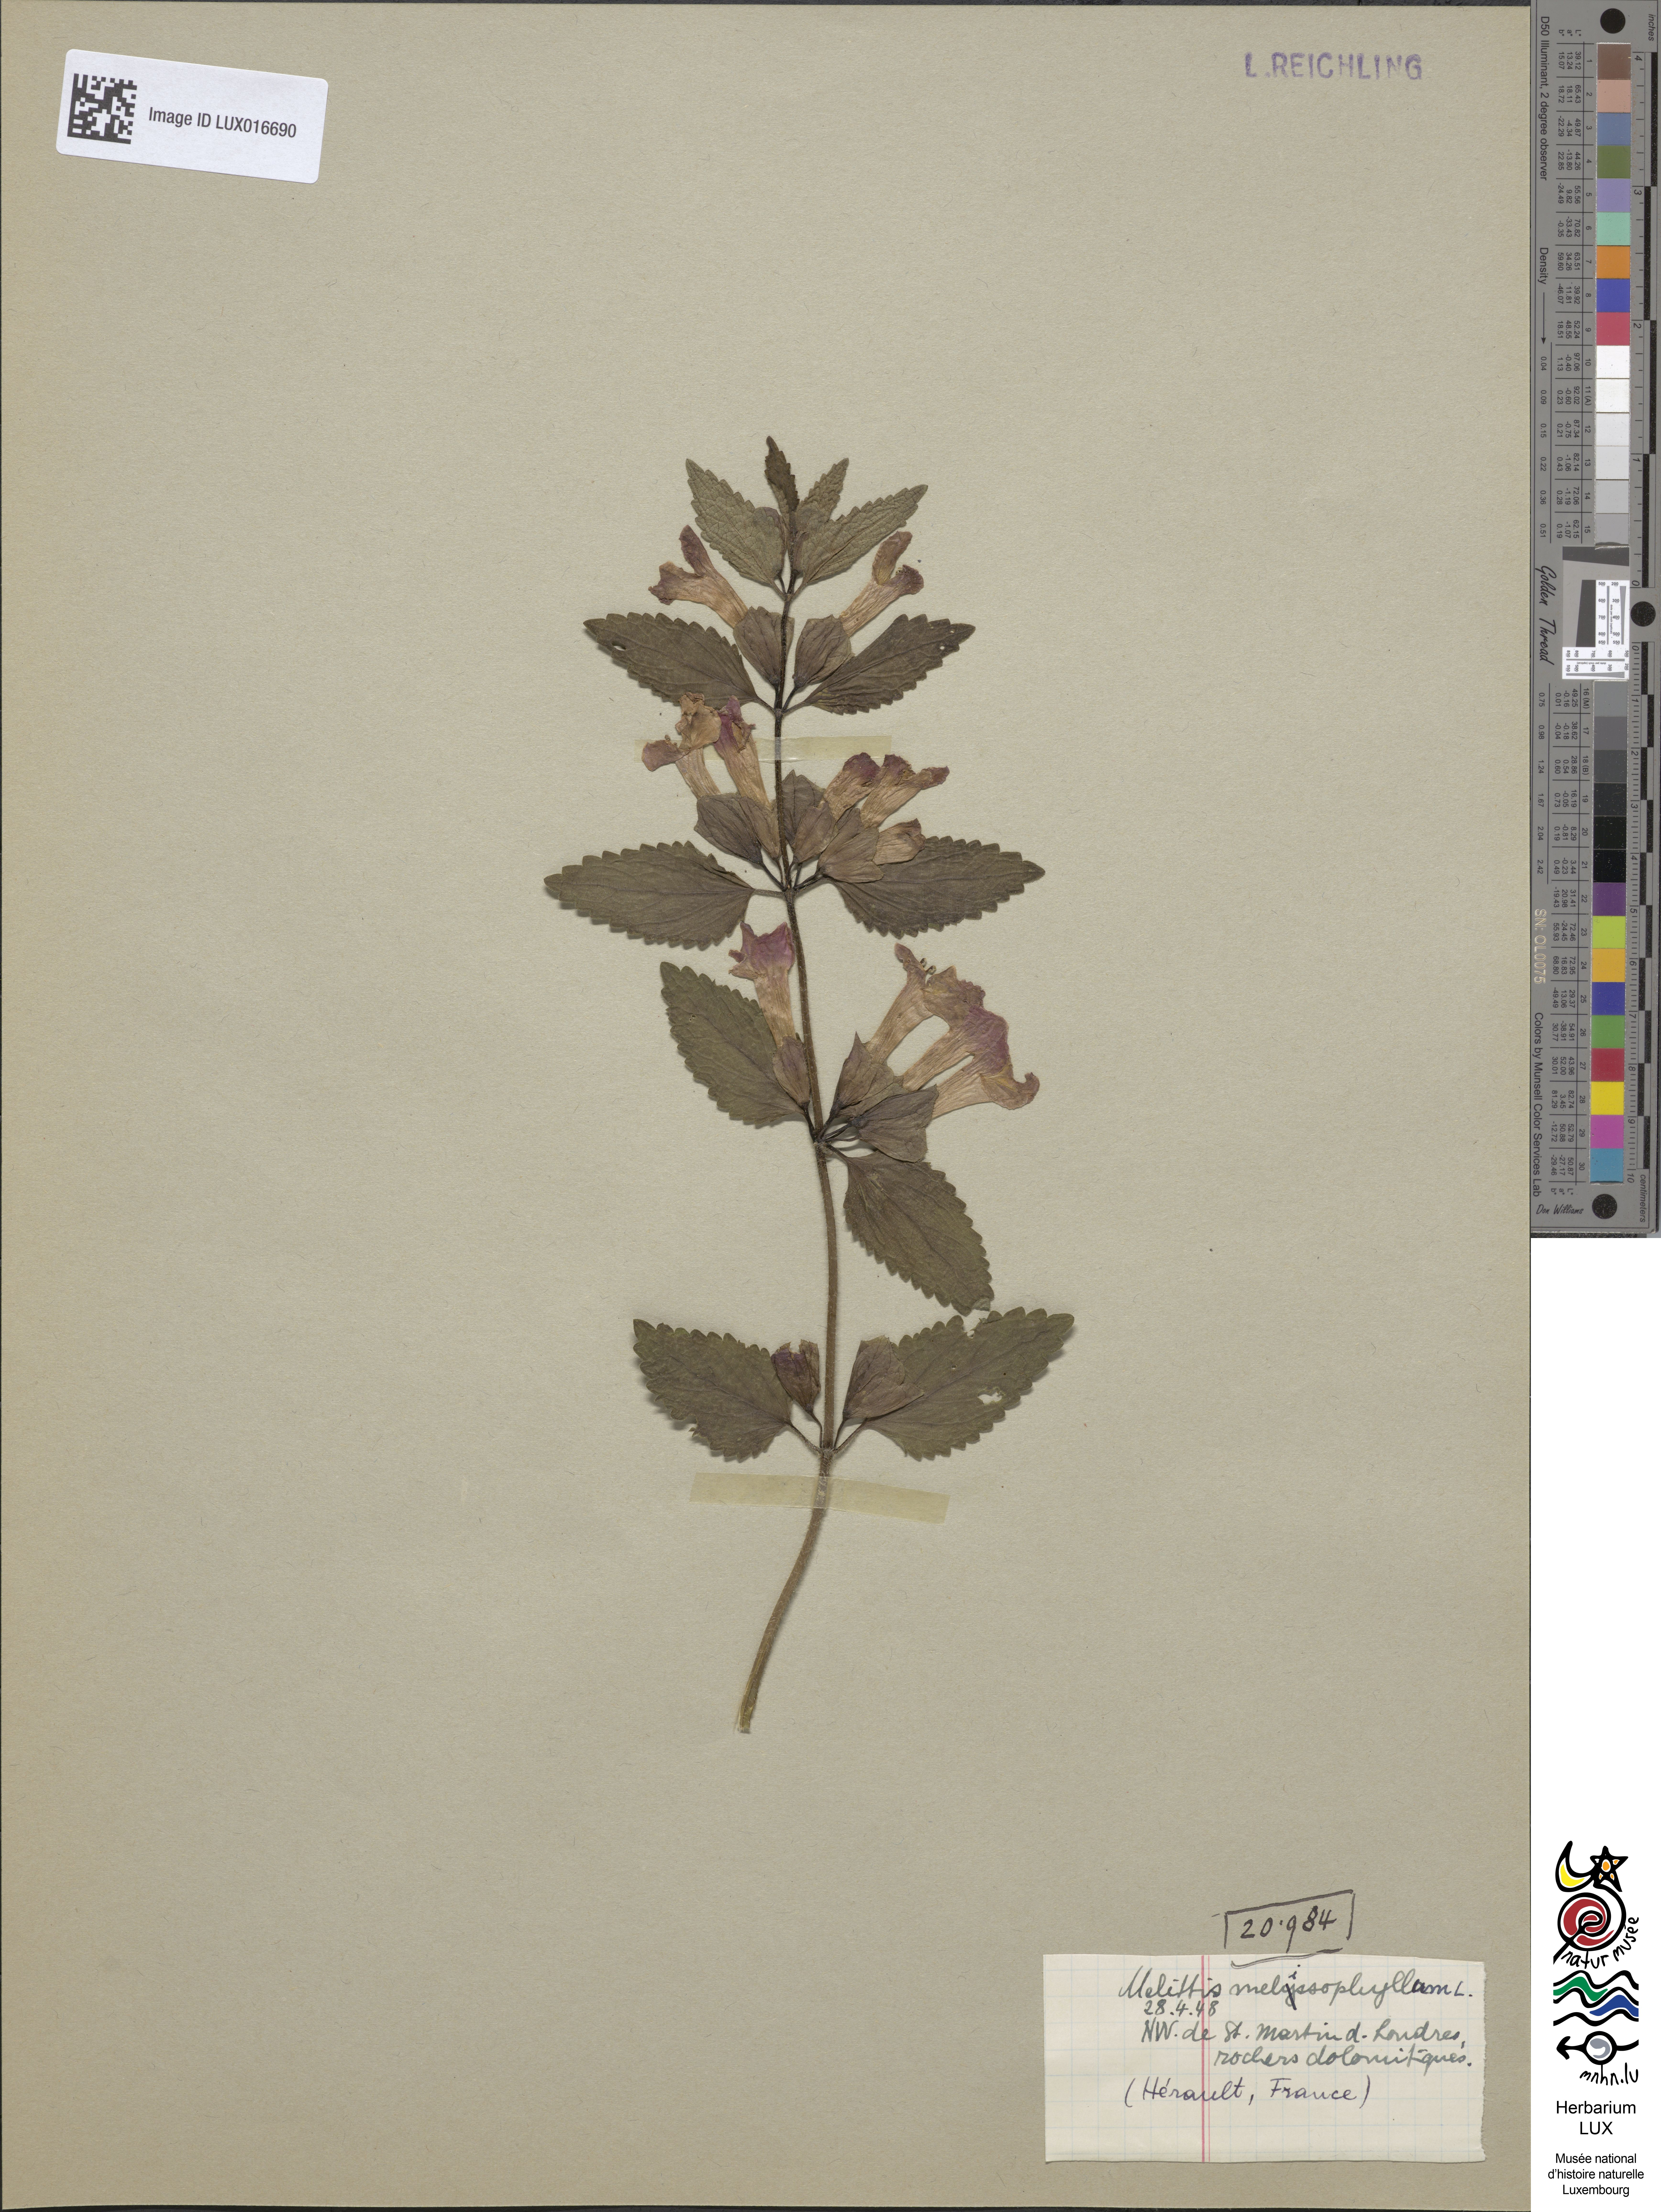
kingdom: Plantae
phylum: Tracheophyta
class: Magnoliopsida
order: Lamiales
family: Lamiaceae
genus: Melittis
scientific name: Melittis melissophyllum
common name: Bastard balm
